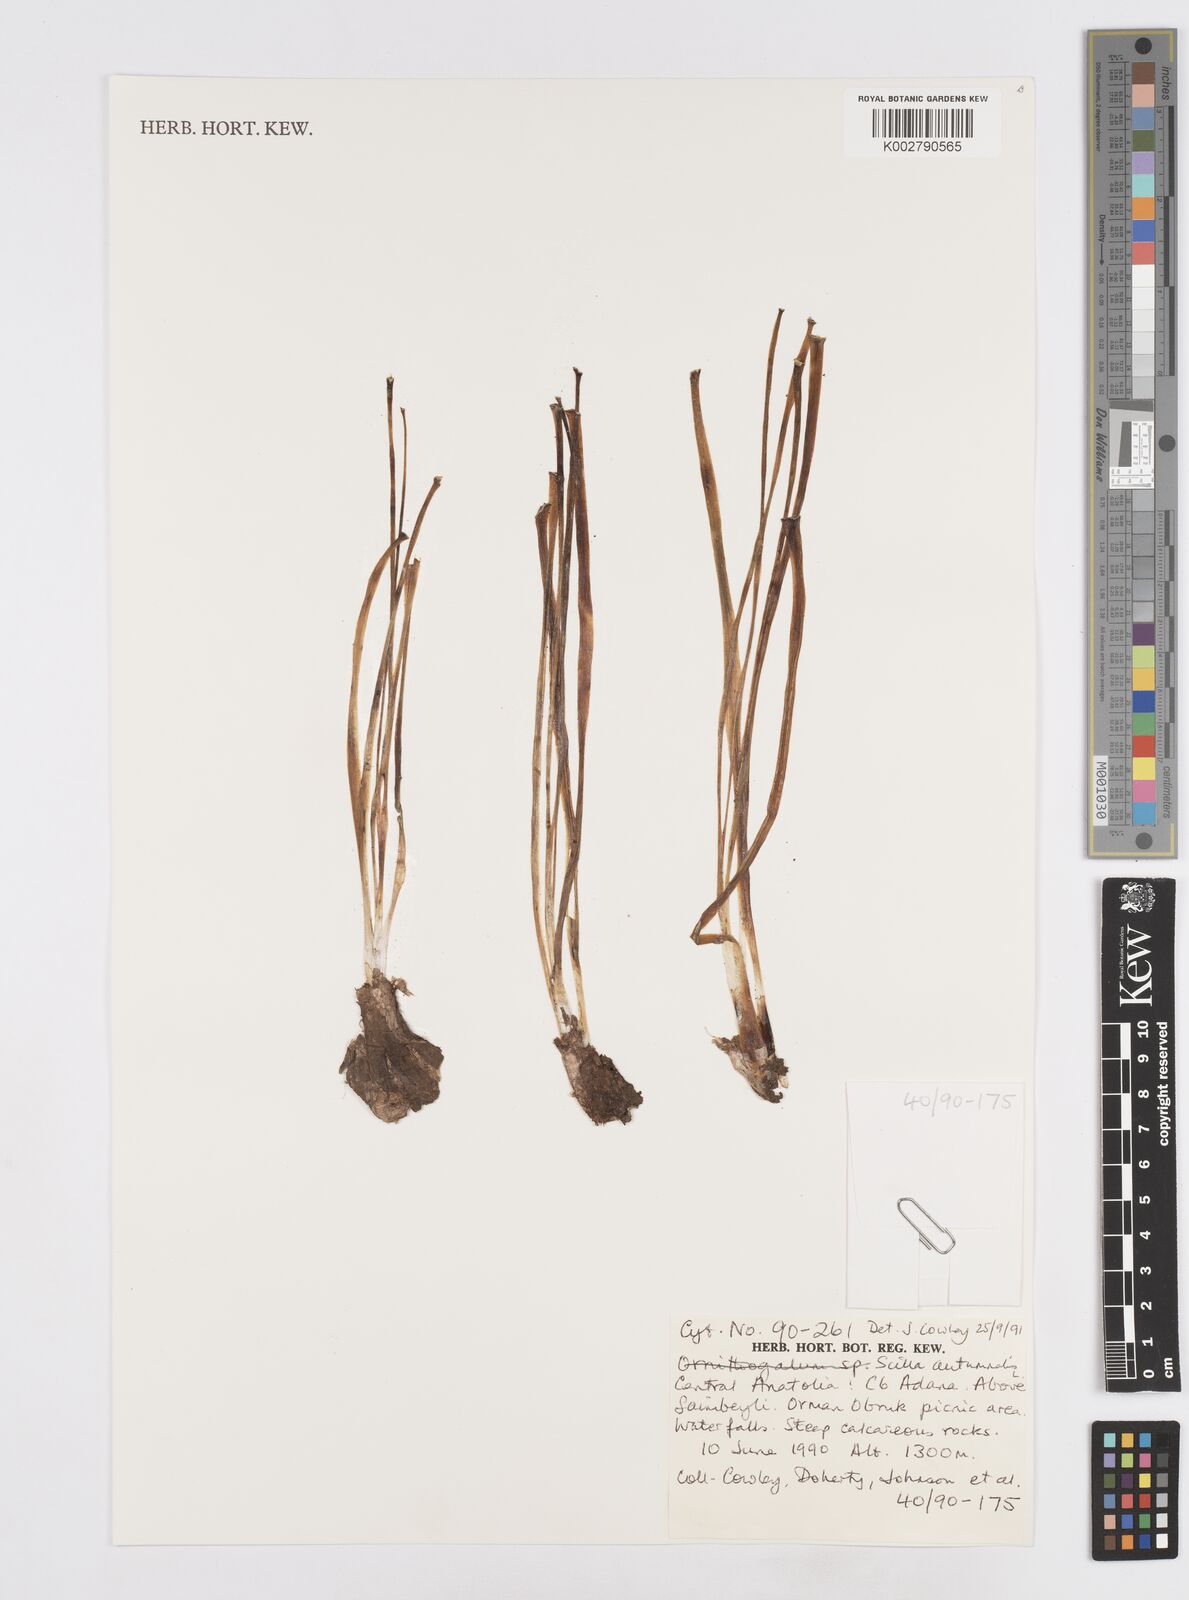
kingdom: Plantae
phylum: Tracheophyta
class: Liliopsida
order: Asparagales
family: Asparagaceae
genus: Prospero
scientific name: Prospero autumnale
